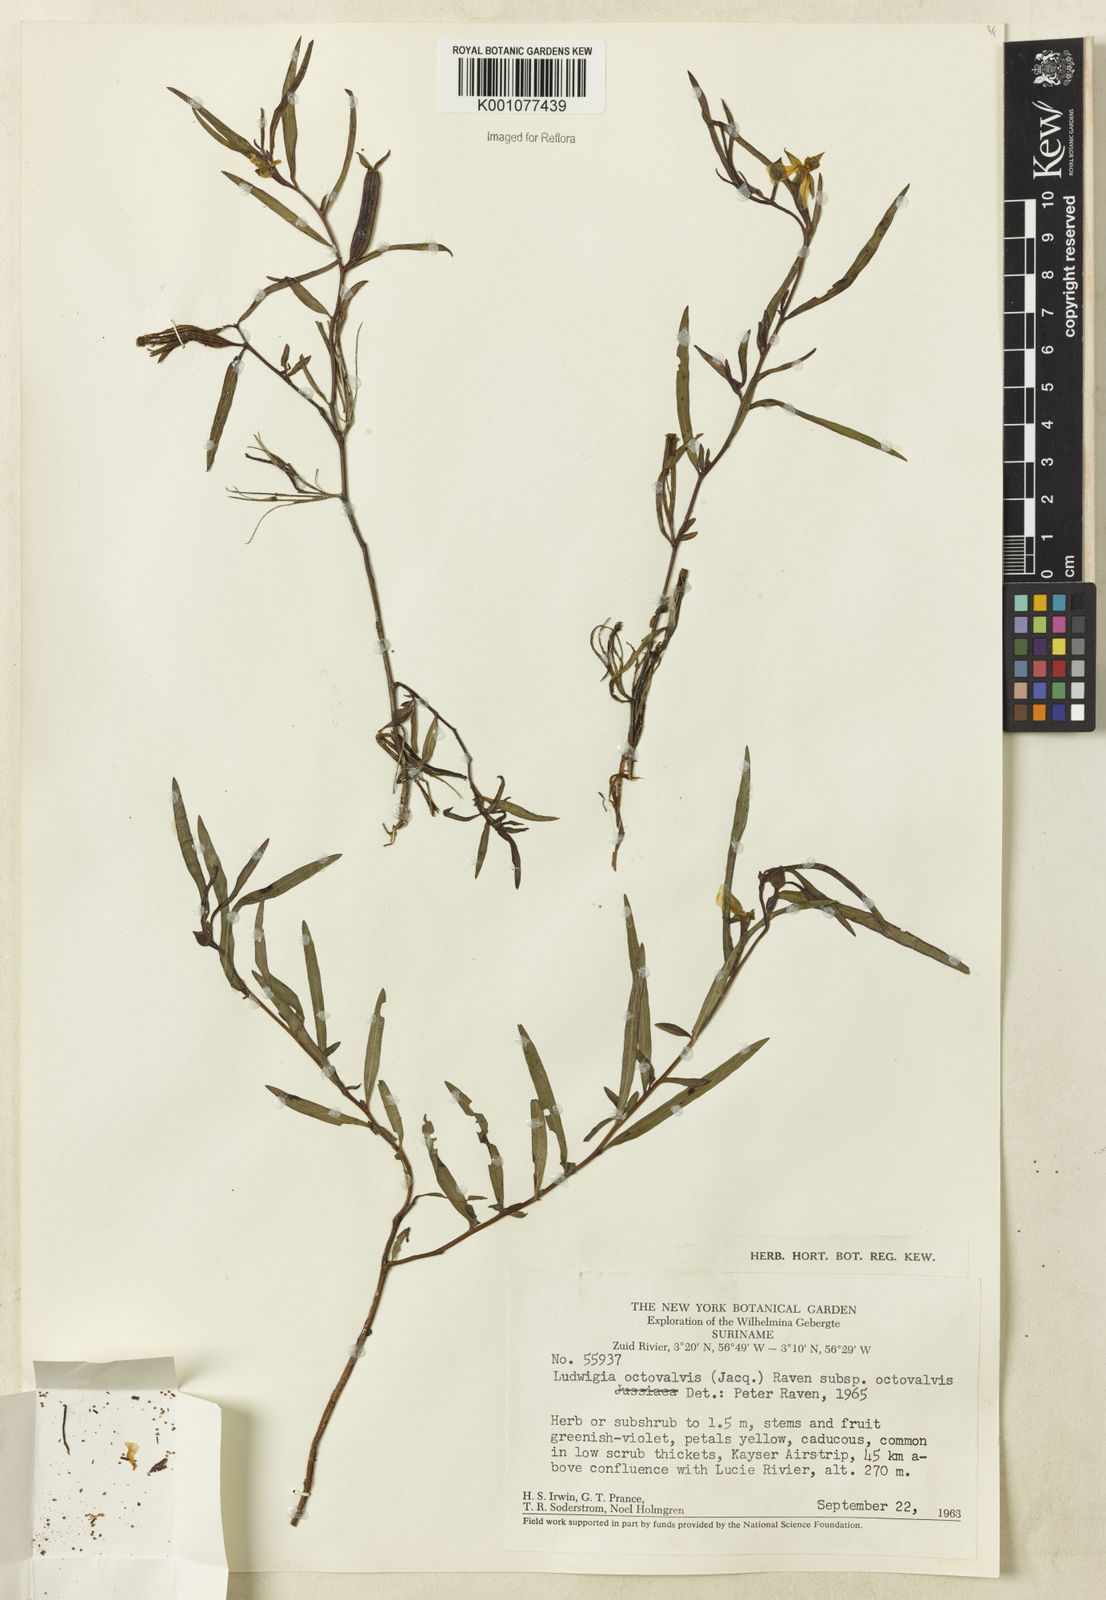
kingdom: Plantae
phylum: Tracheophyta
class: Magnoliopsida
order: Myrtales
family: Onagraceae
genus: Ludwigia
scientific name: Ludwigia octovalvis
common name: Water-primrose
